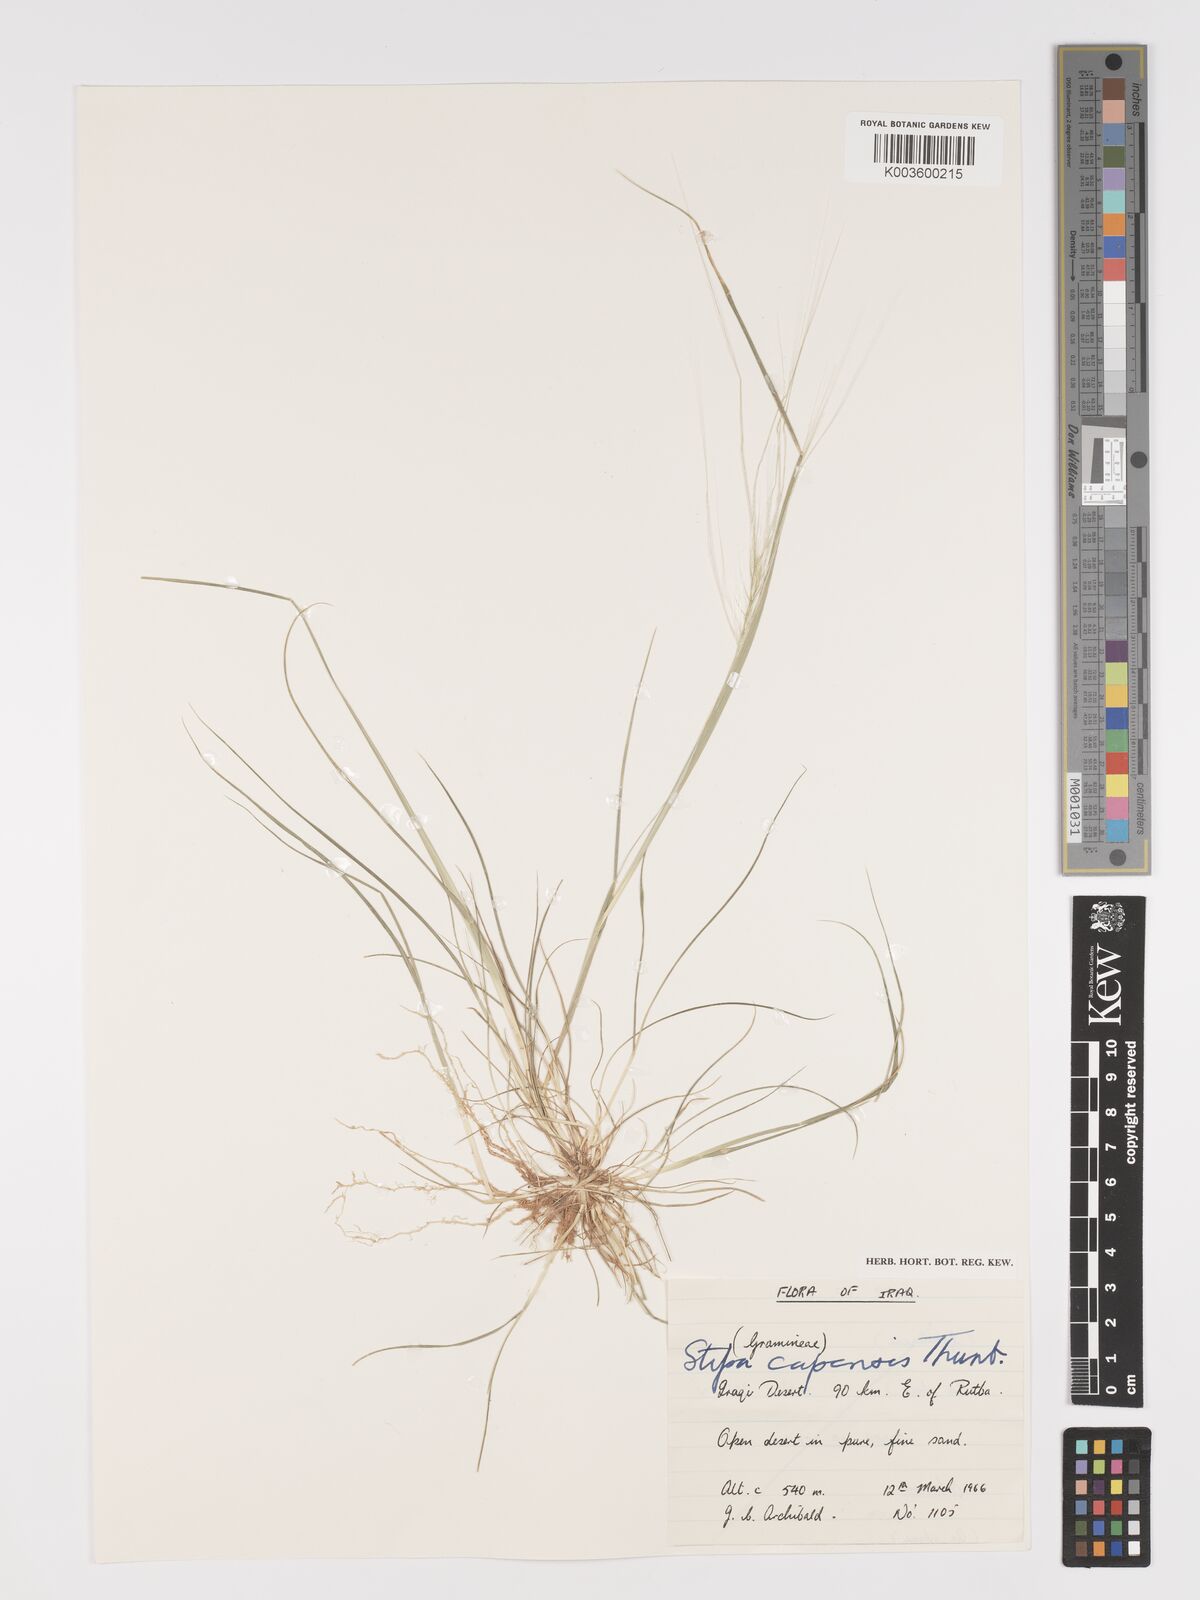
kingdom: Plantae
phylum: Tracheophyta
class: Liliopsida
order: Poales
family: Poaceae
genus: Stipellula
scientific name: Stipellula capensis
